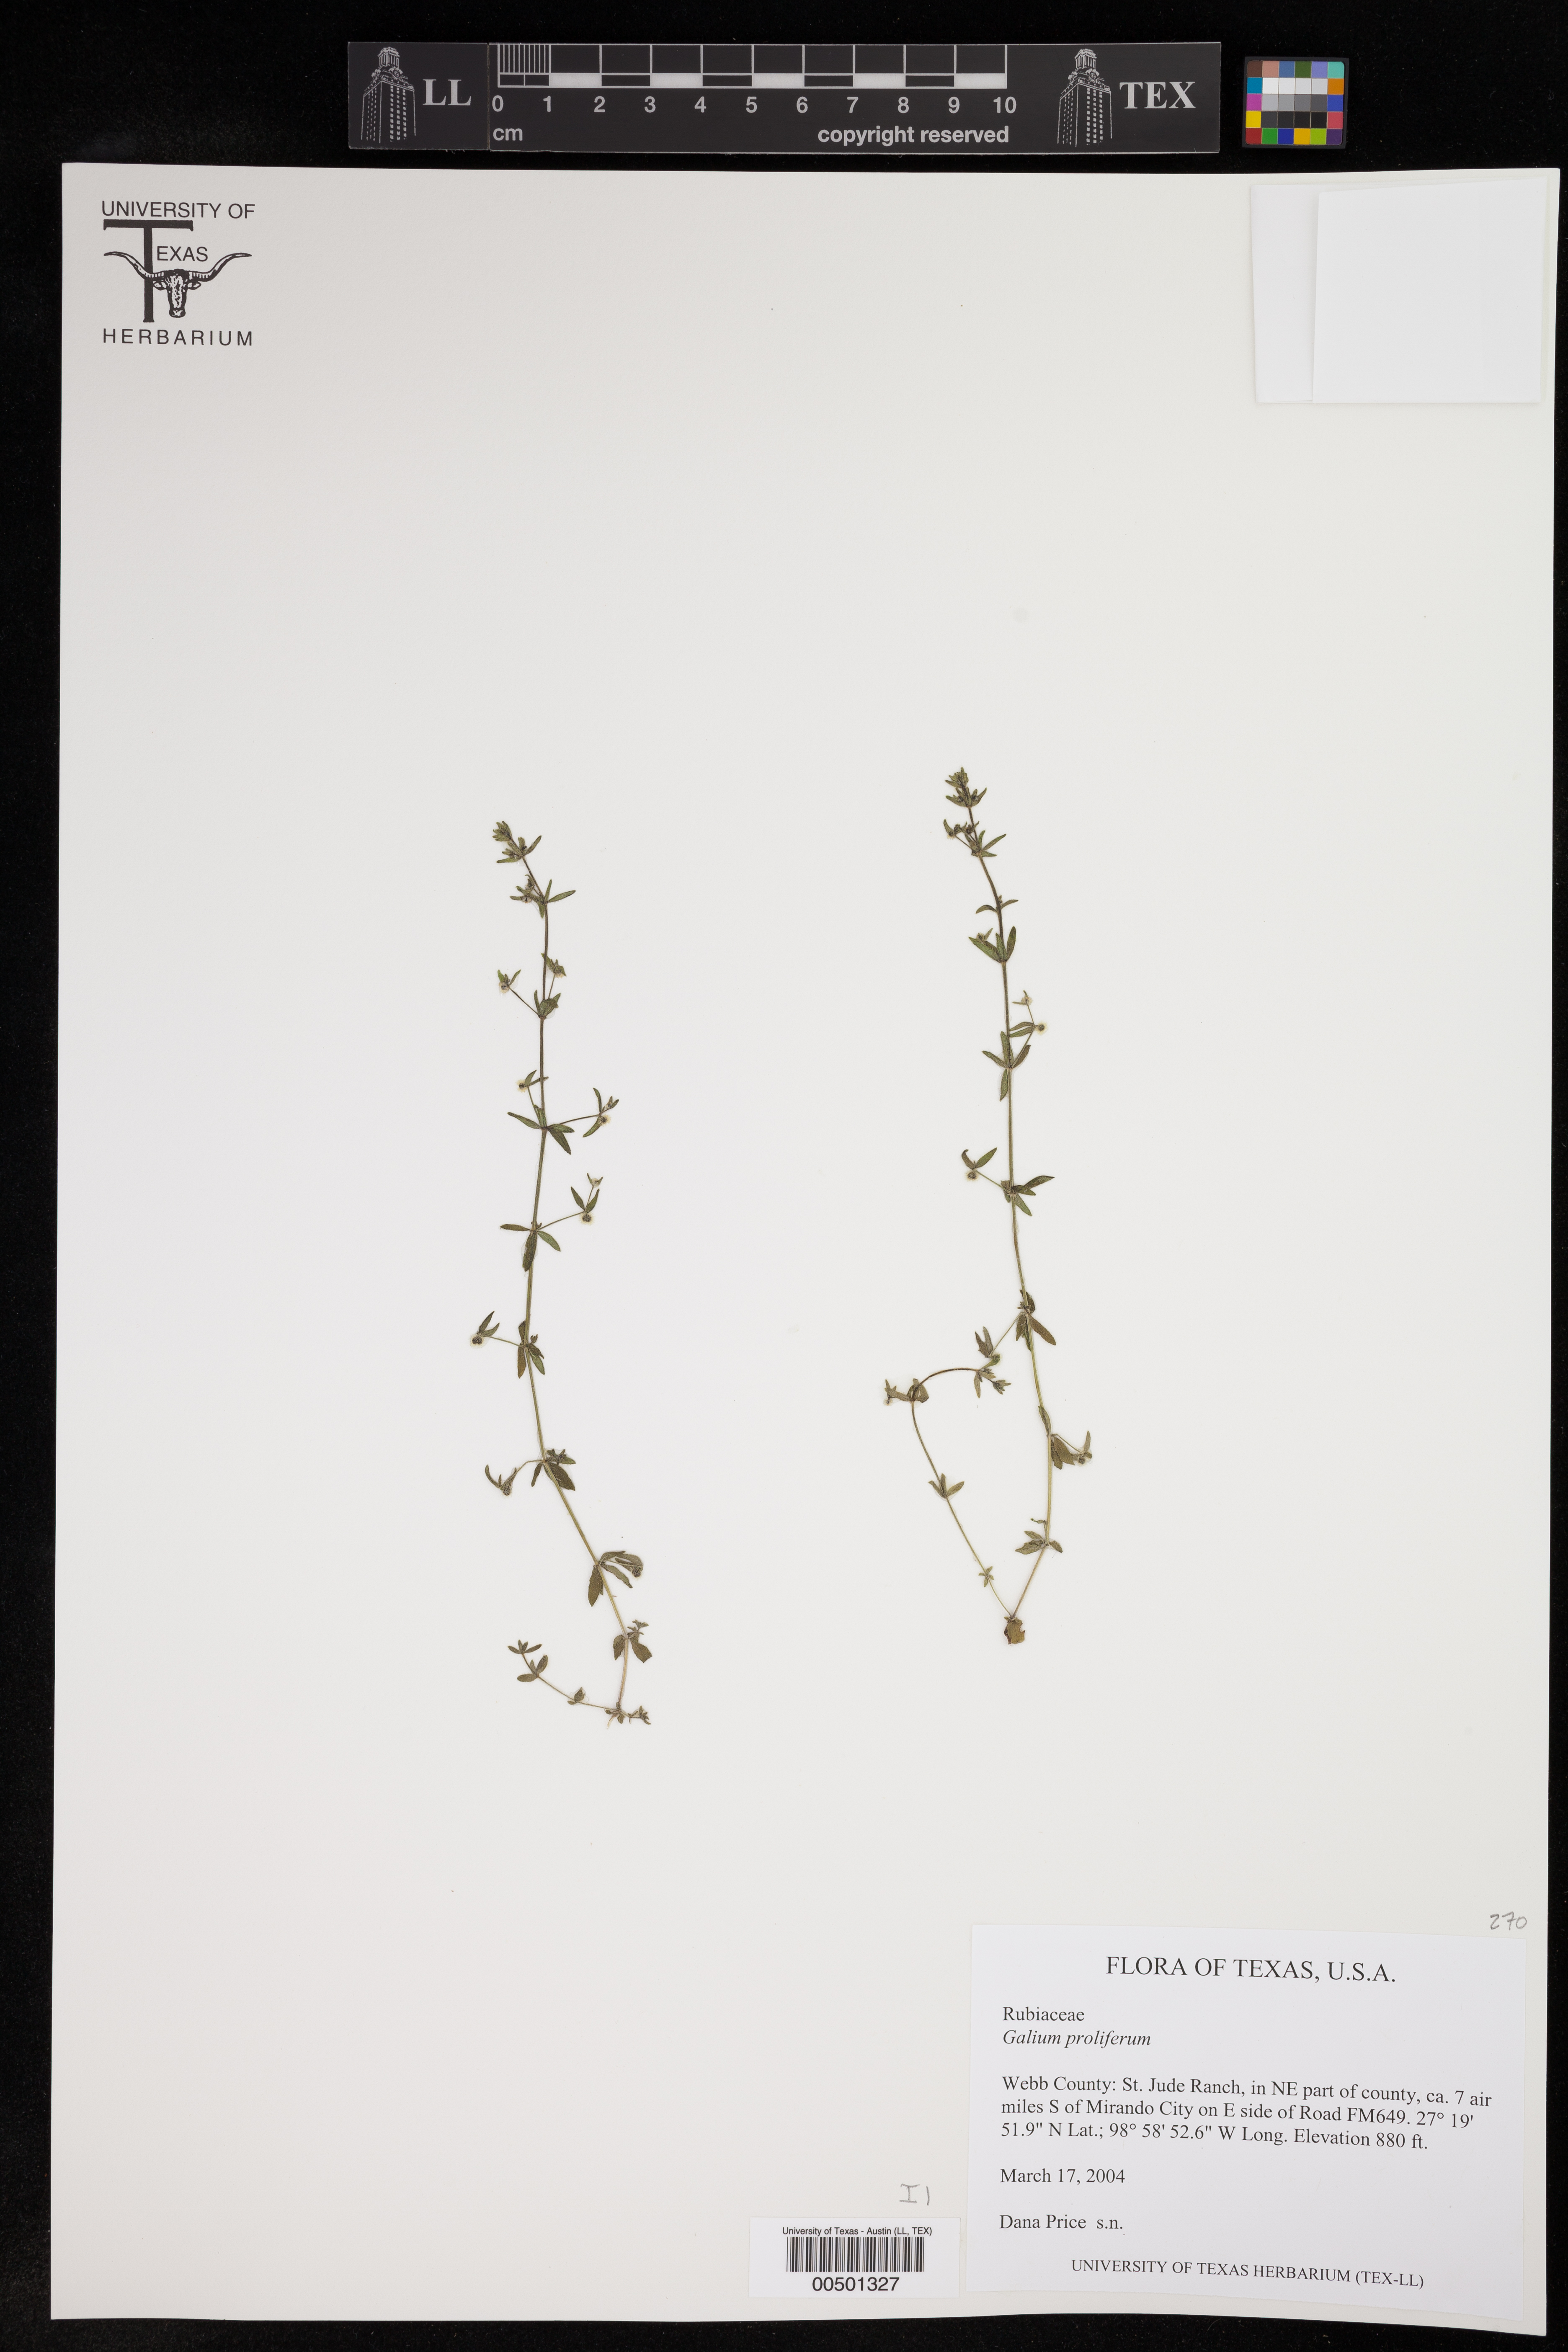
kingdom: Plantae
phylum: Tracheophyta
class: Magnoliopsida
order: Gentianales
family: Rubiaceae
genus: Galium
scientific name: Galium proliferum
